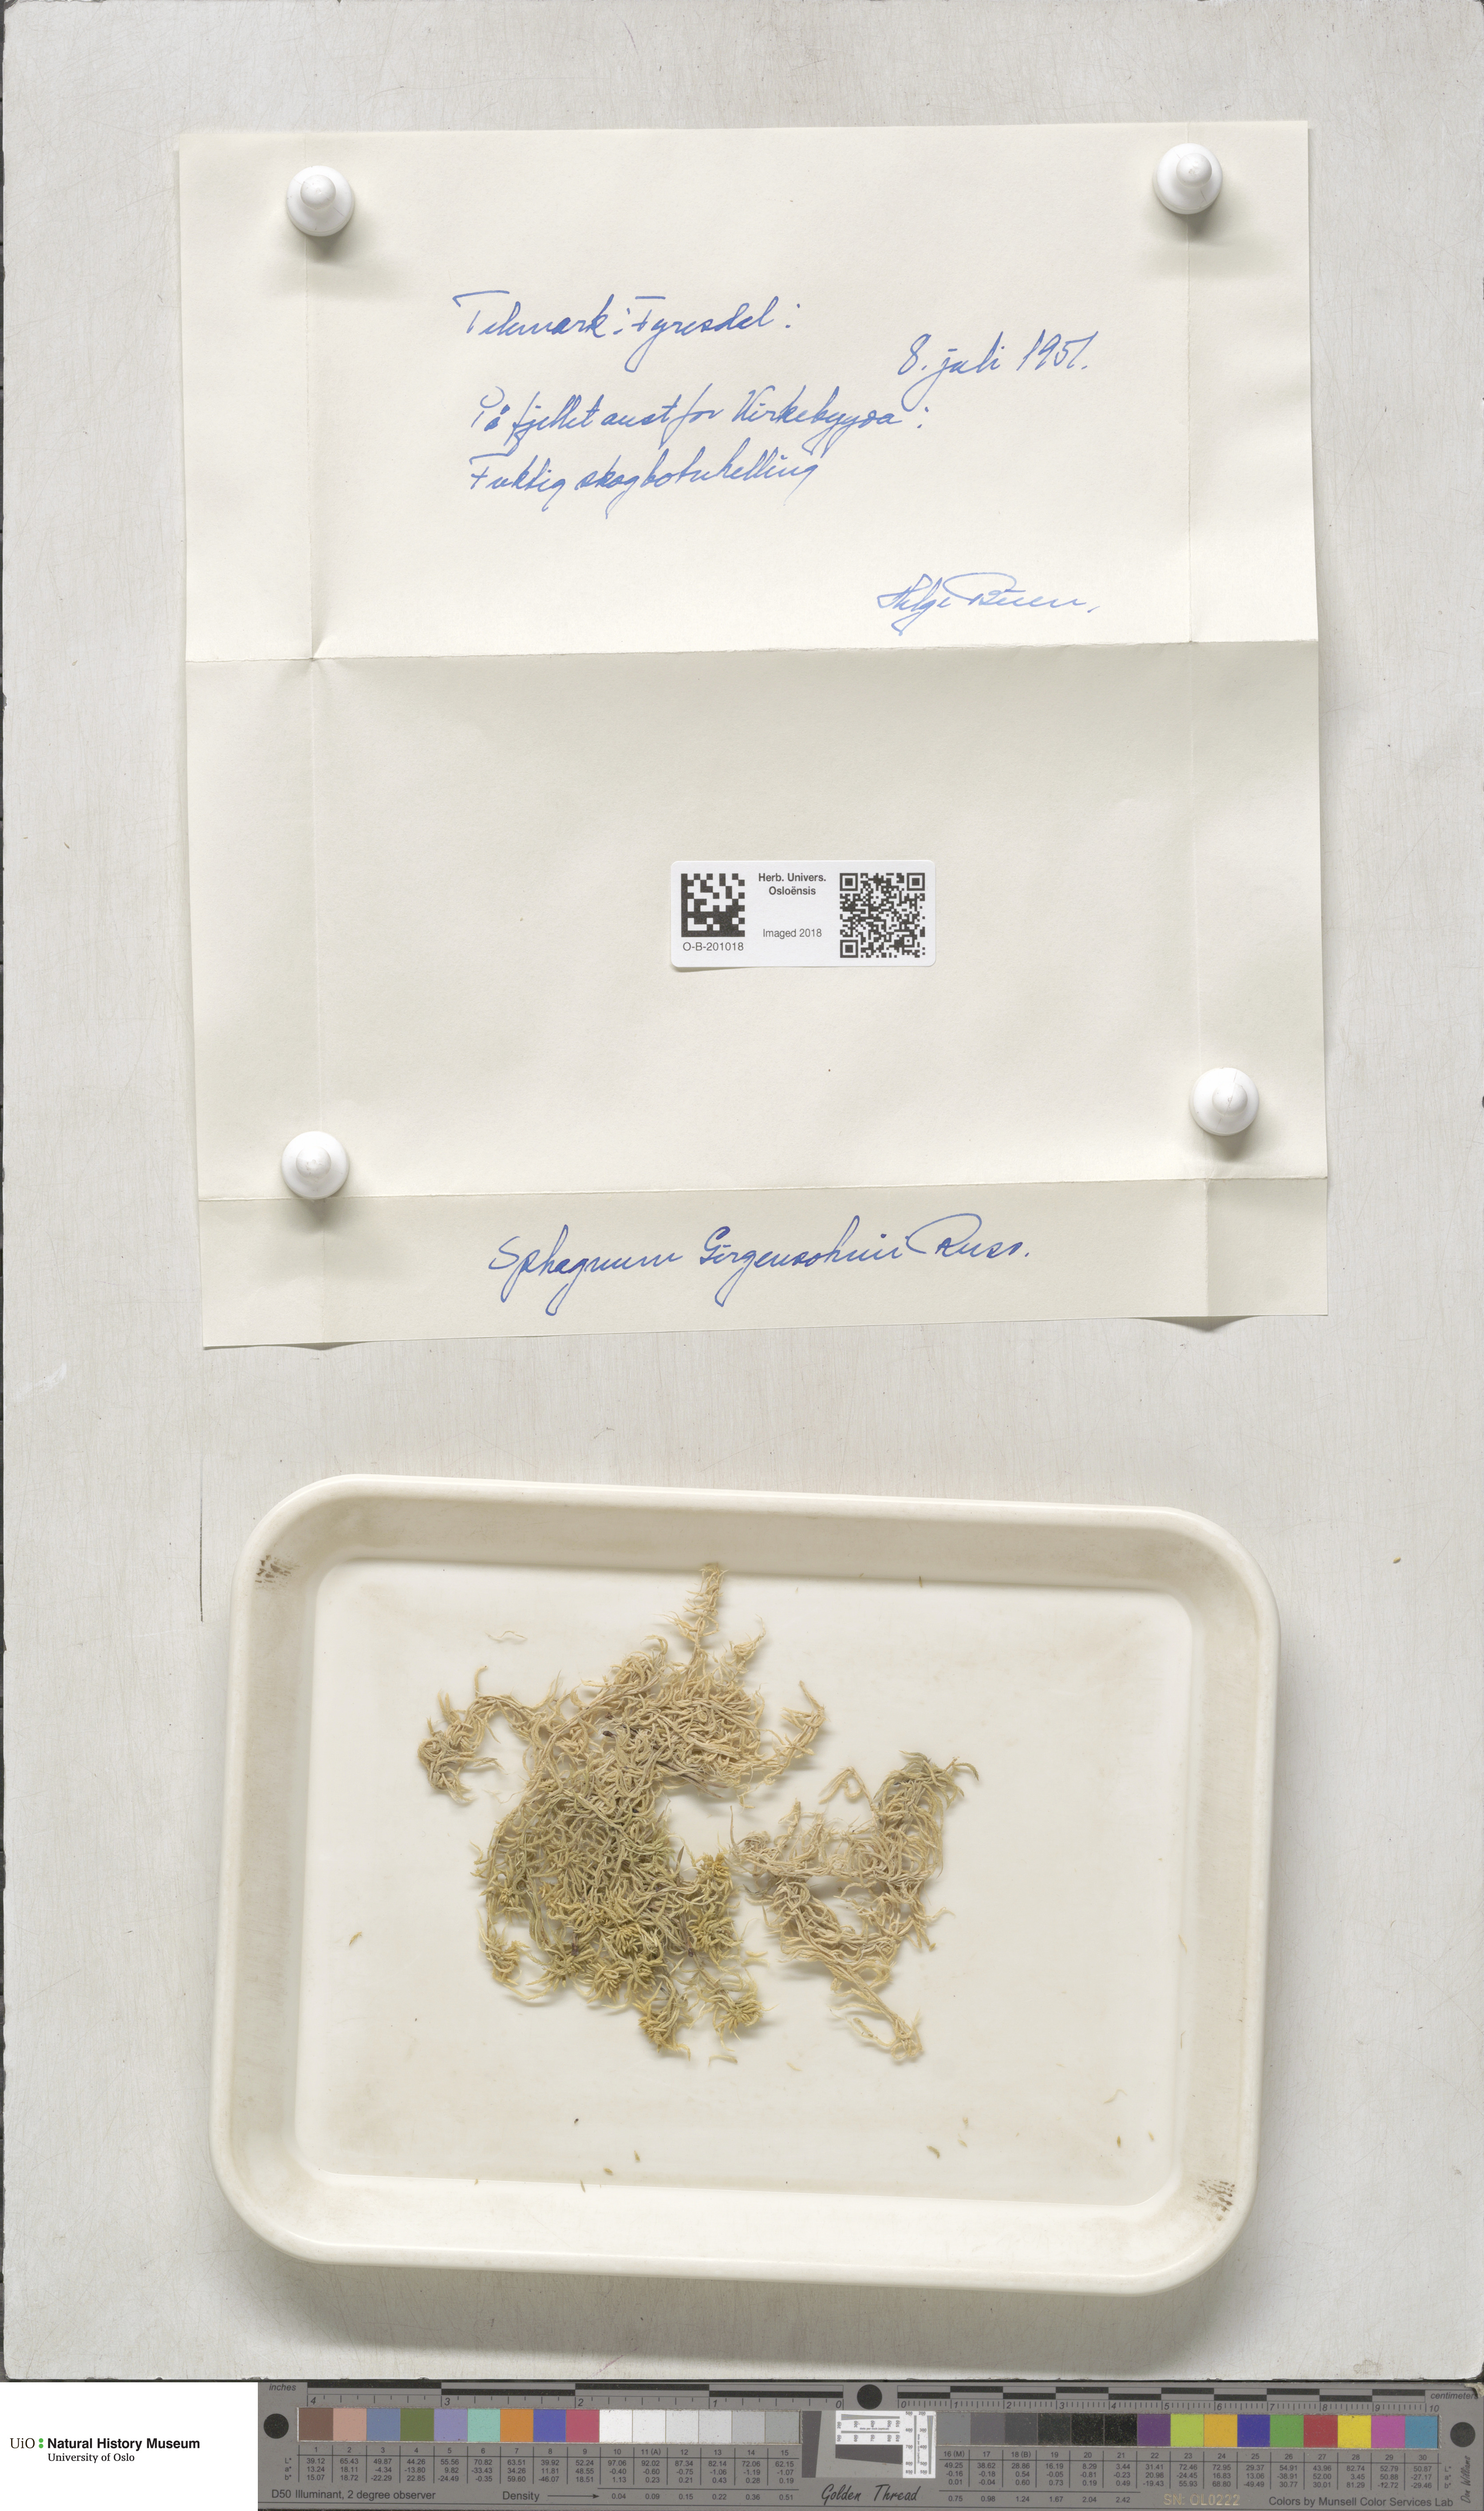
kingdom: Plantae
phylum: Bryophyta
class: Sphagnopsida
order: Sphagnales
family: Sphagnaceae
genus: Sphagnum
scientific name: Sphagnum girgensohnii
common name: Girgensohn's peat moss
